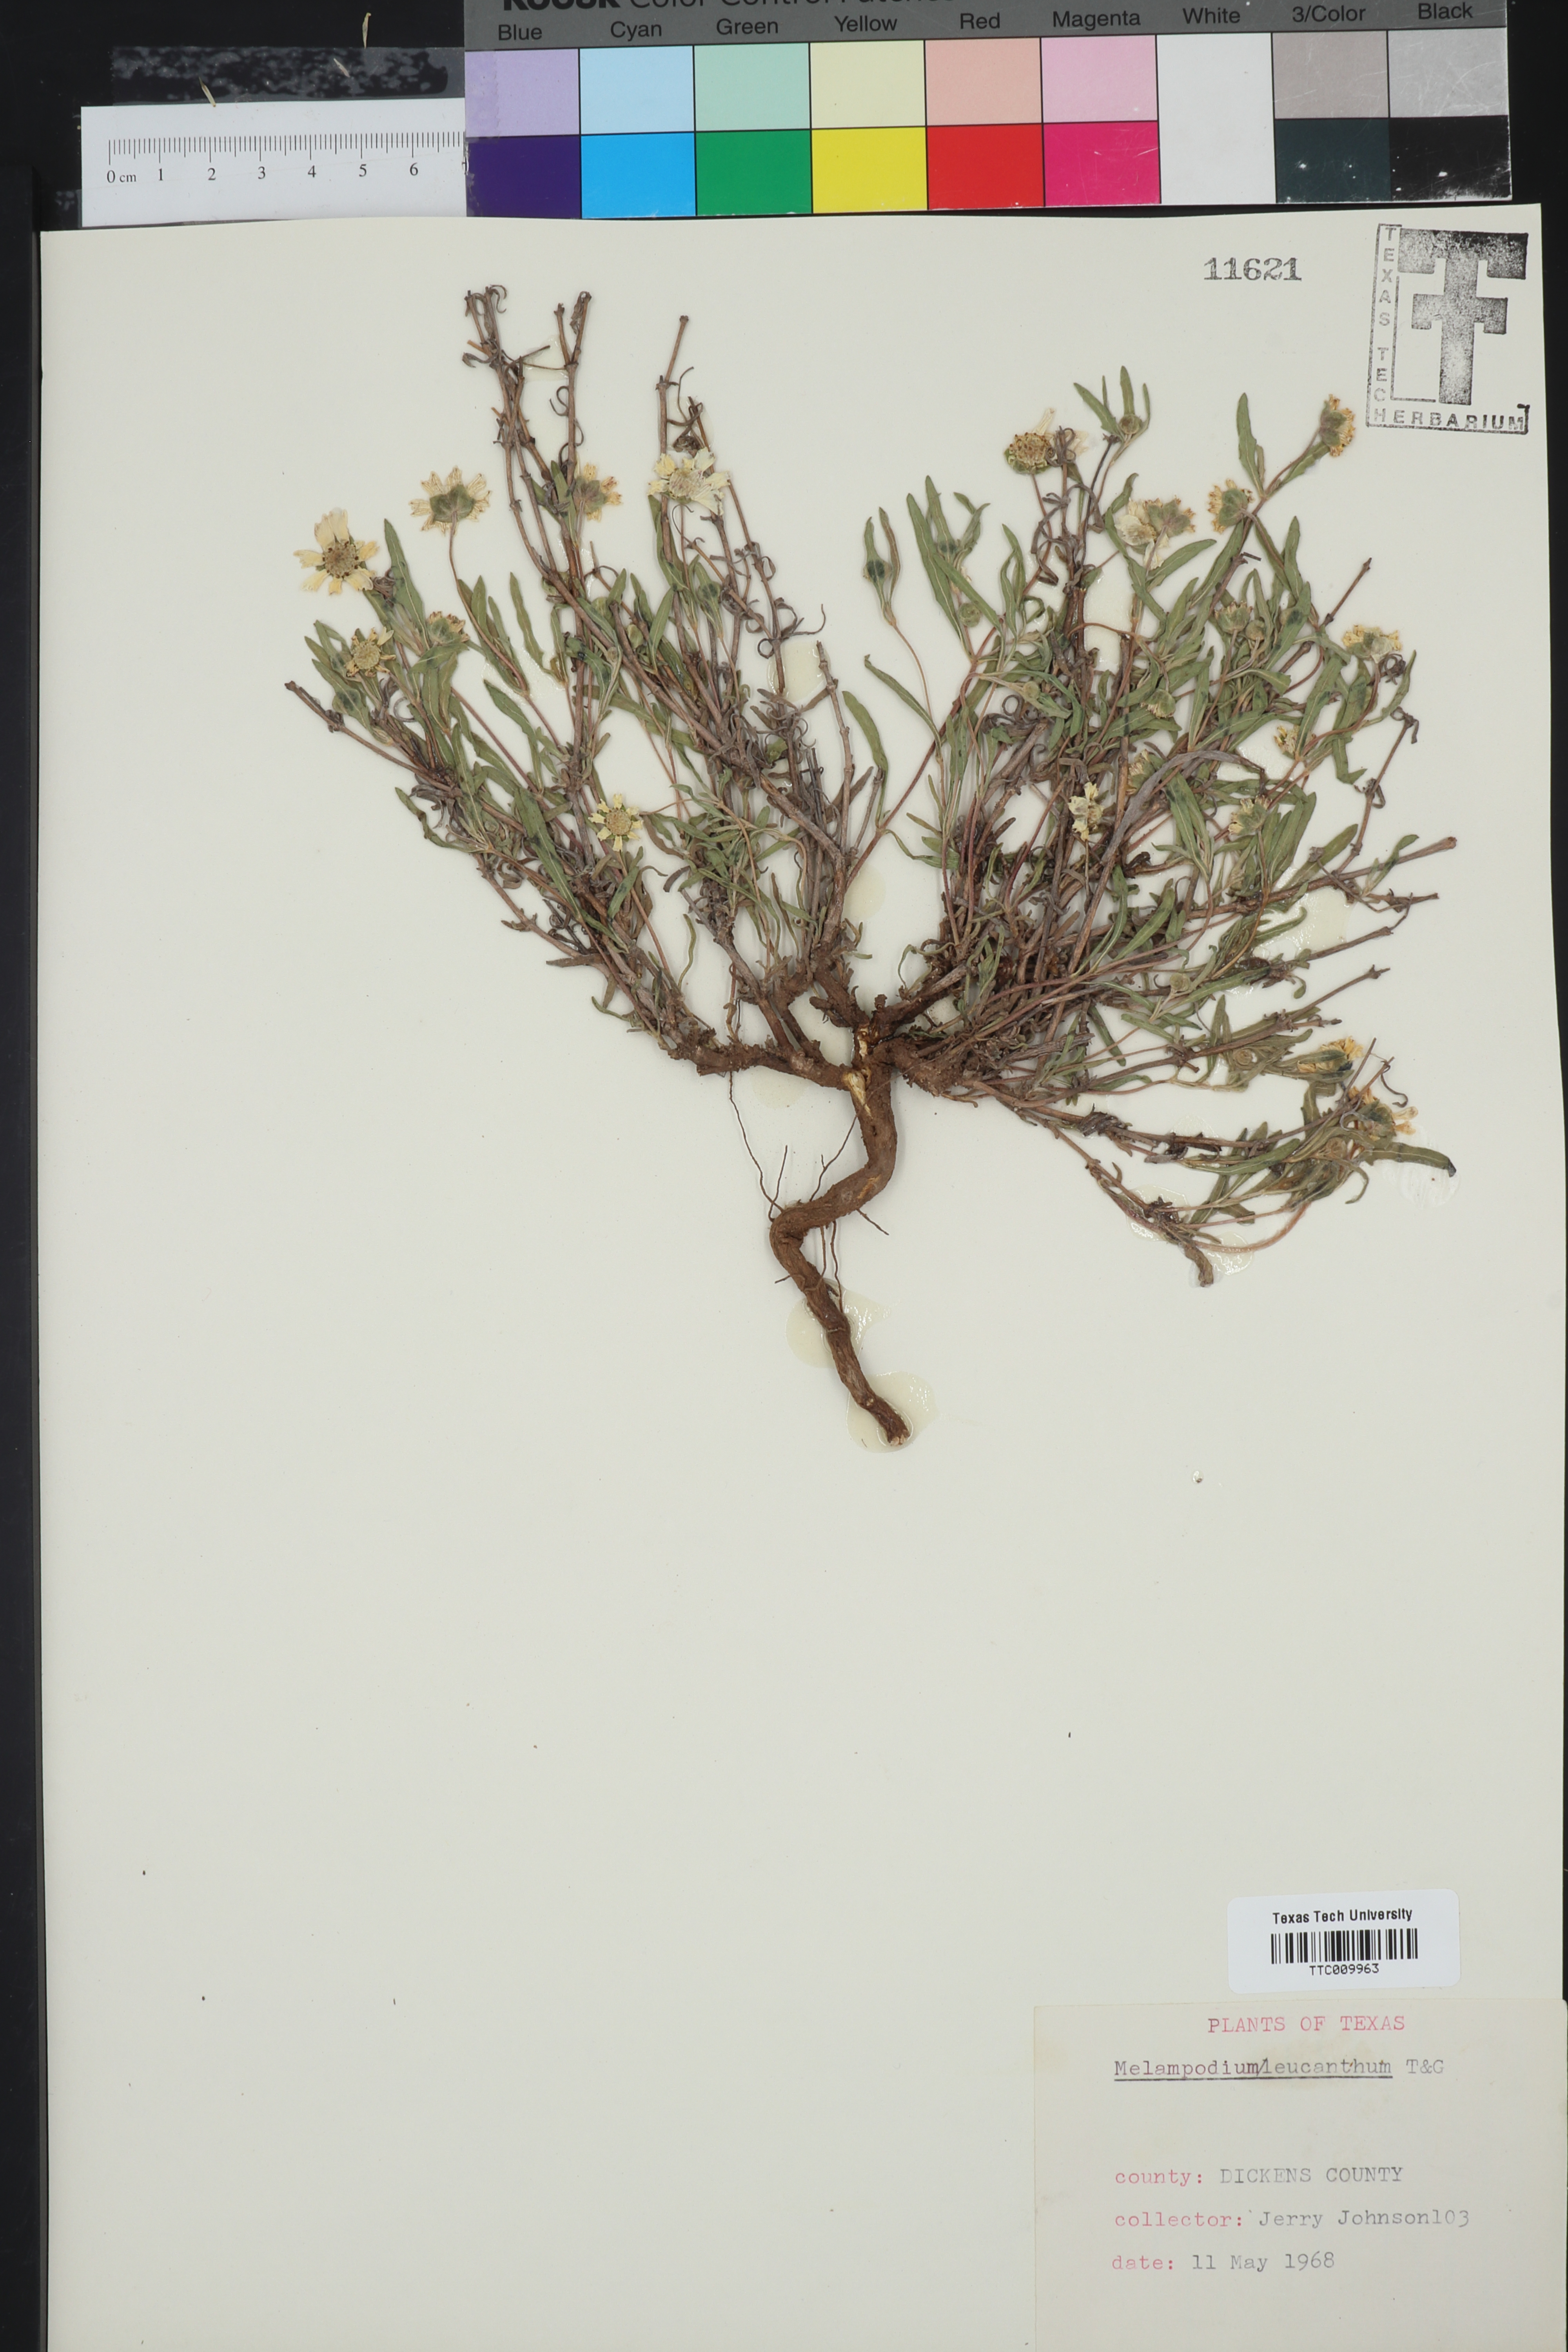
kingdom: Plantae
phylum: Tracheophyta
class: Magnoliopsida
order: Asterales
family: Asteraceae
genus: Melampodium
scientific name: Melampodium leucanthum
